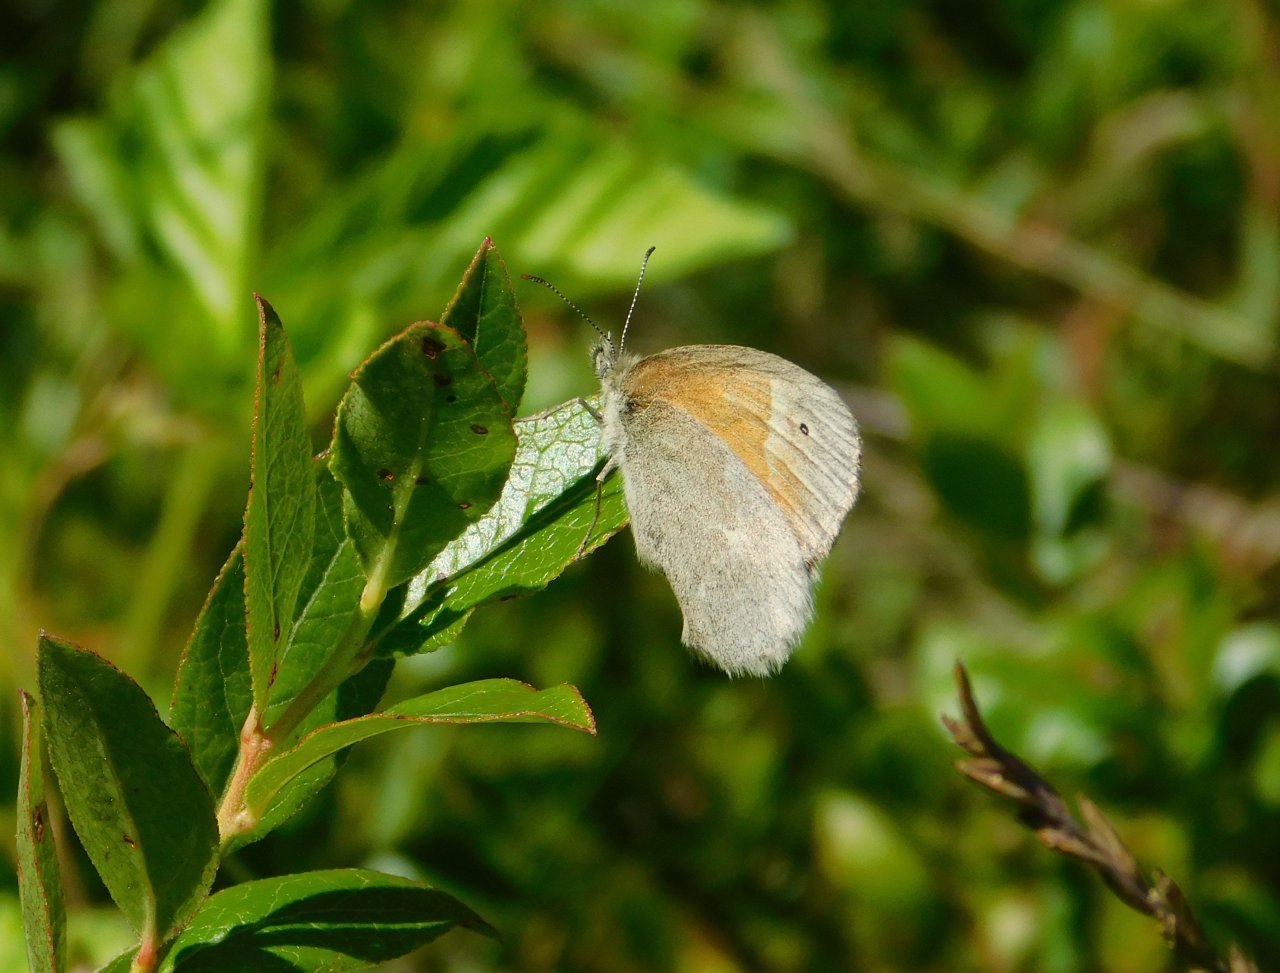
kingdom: Animalia
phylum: Arthropoda
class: Insecta
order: Lepidoptera
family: Nymphalidae
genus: Coenonympha
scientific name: Coenonympha tullia
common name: Large Heath
